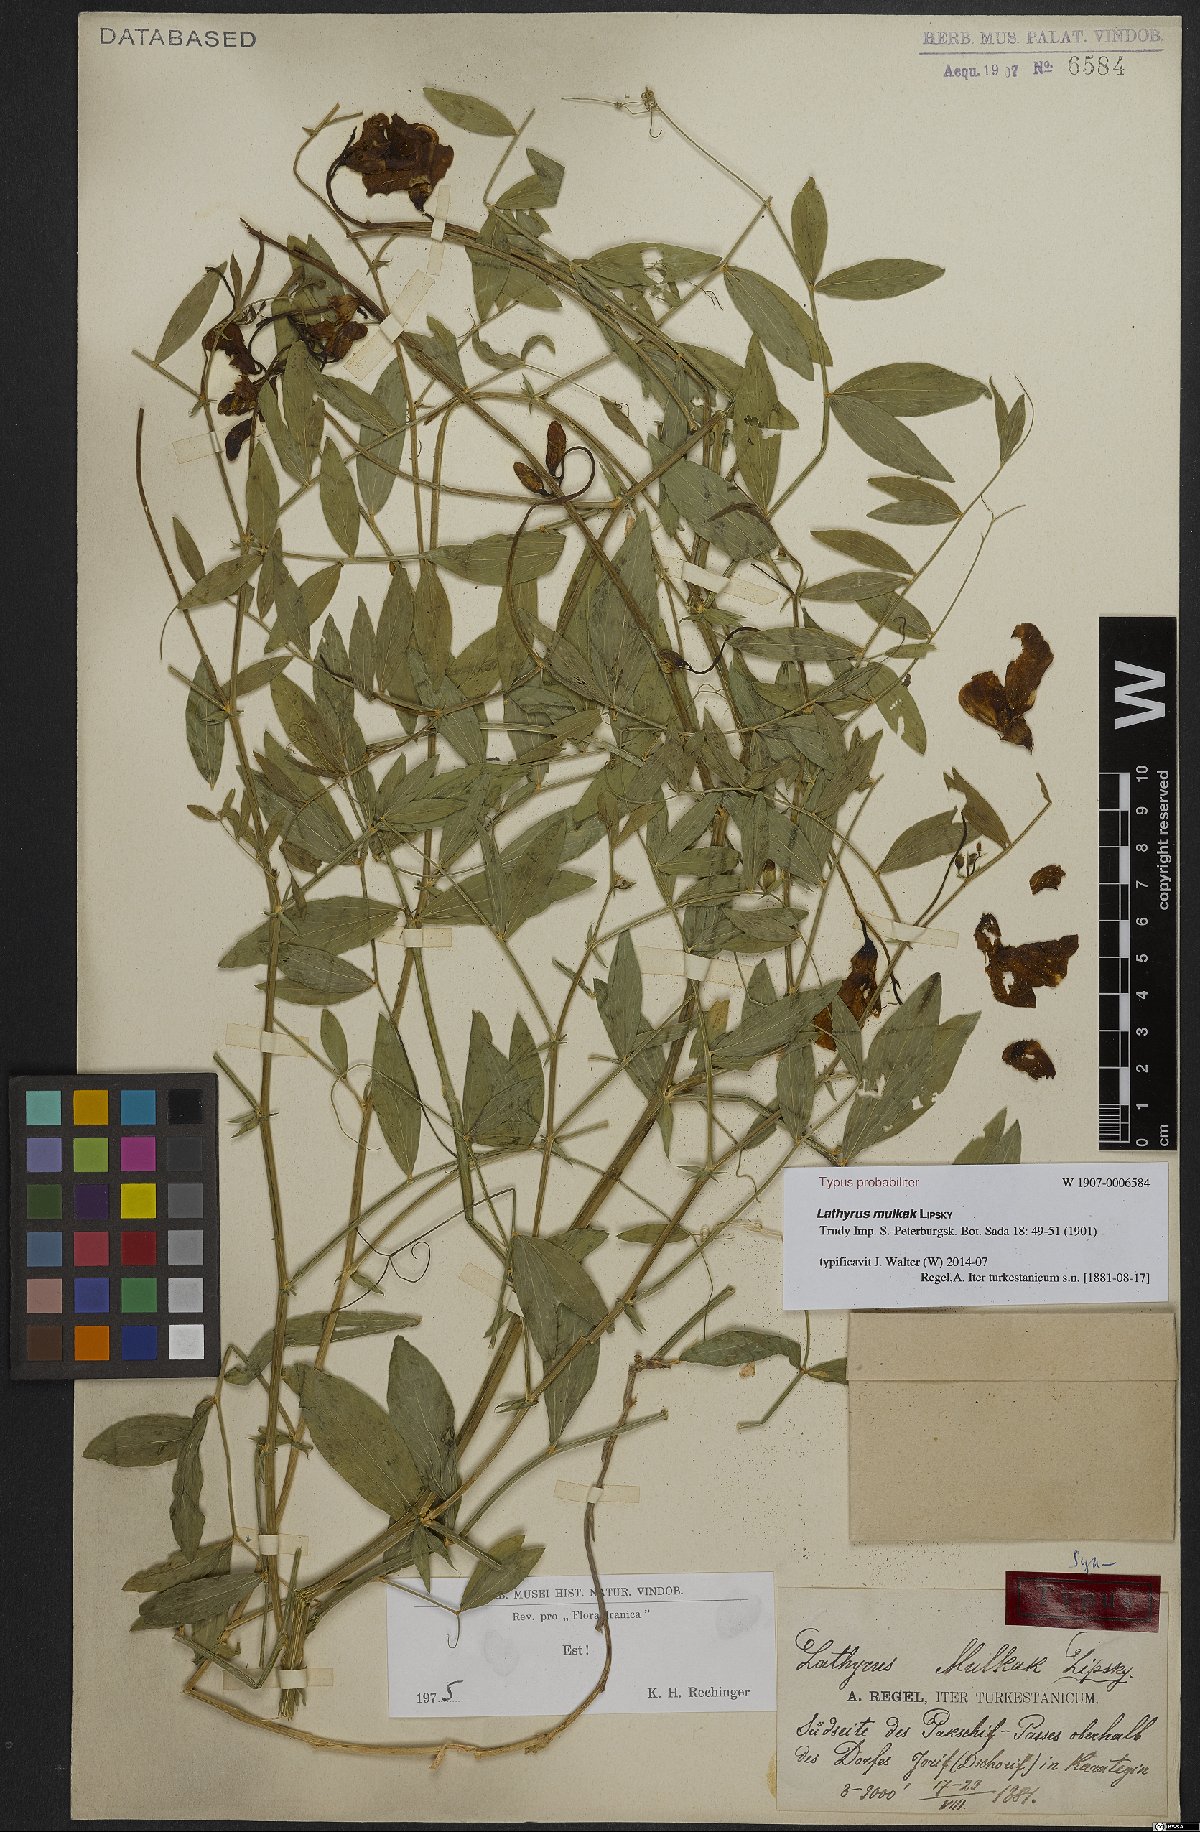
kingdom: Plantae
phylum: Tracheophyta
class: Magnoliopsida
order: Fabales
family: Fabaceae
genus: Lathyrus
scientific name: Lathyrus mulkak
